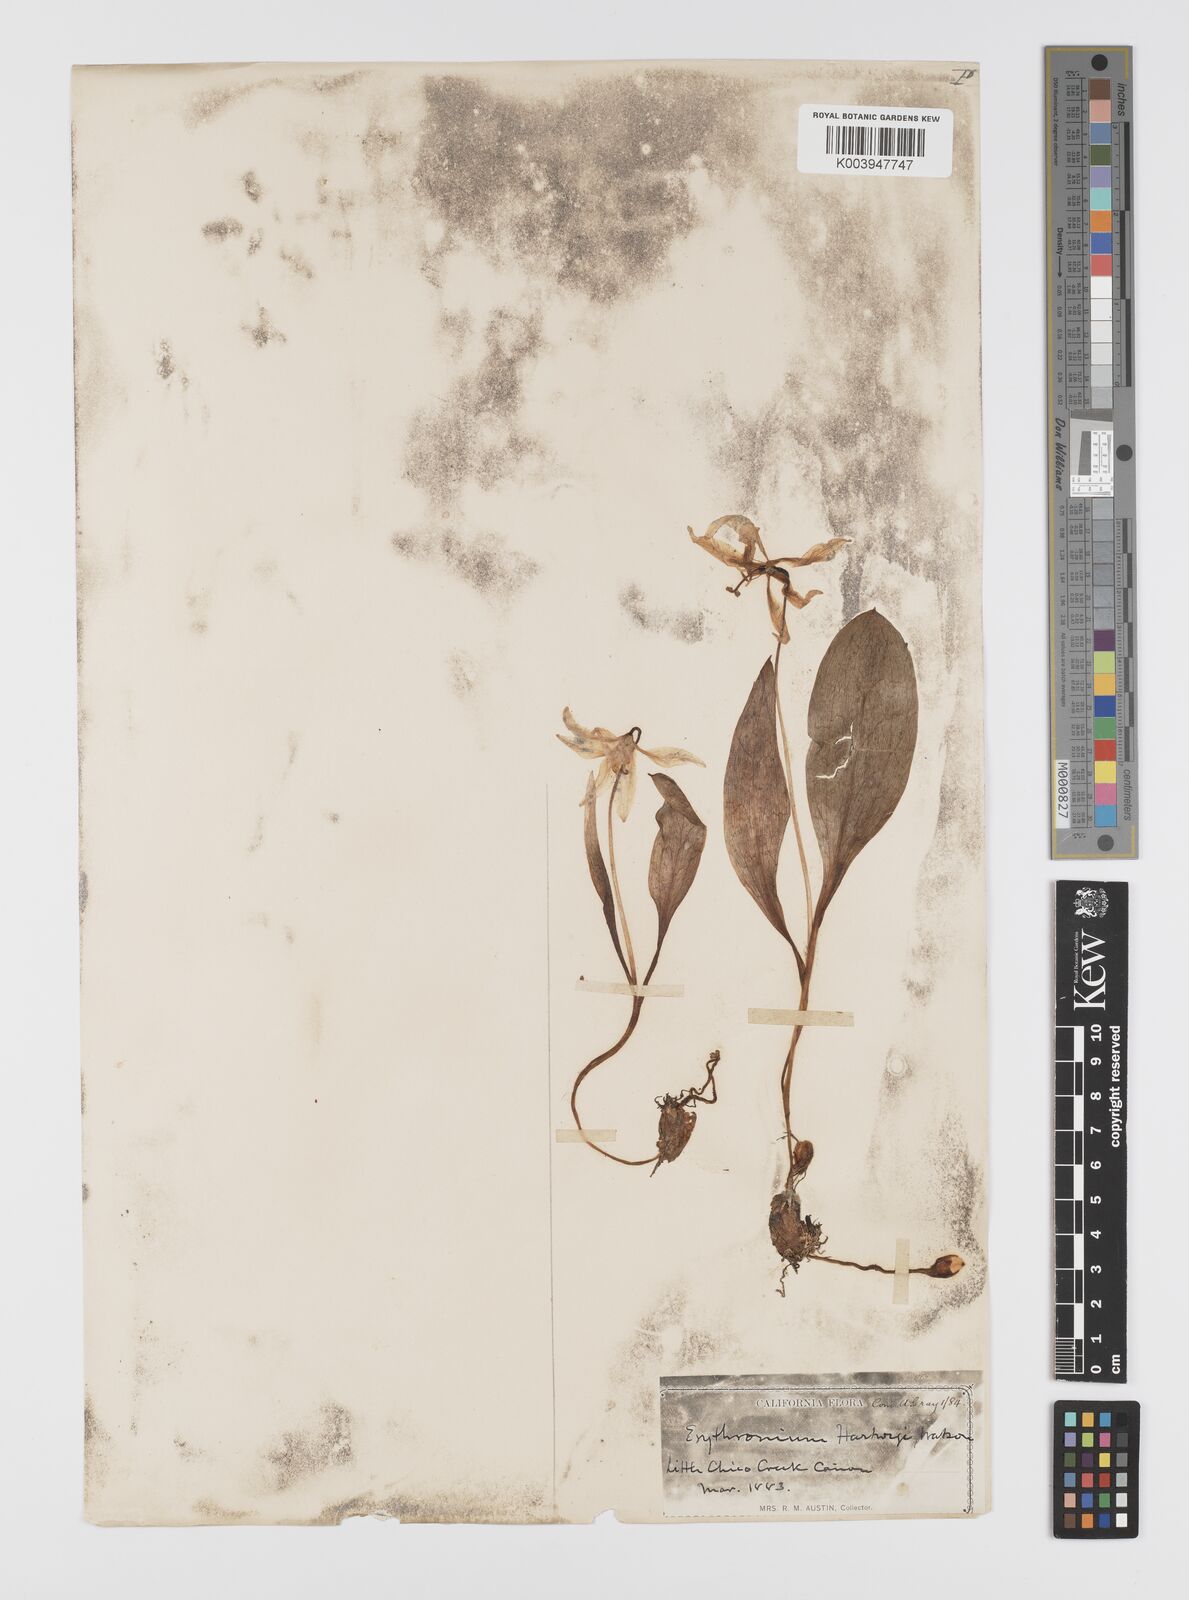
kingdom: Plantae
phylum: Tracheophyta
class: Liliopsida
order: Liliales
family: Liliaceae
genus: Erythronium
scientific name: Erythronium multiscapideum
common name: Sierra foothills fawn-lily
